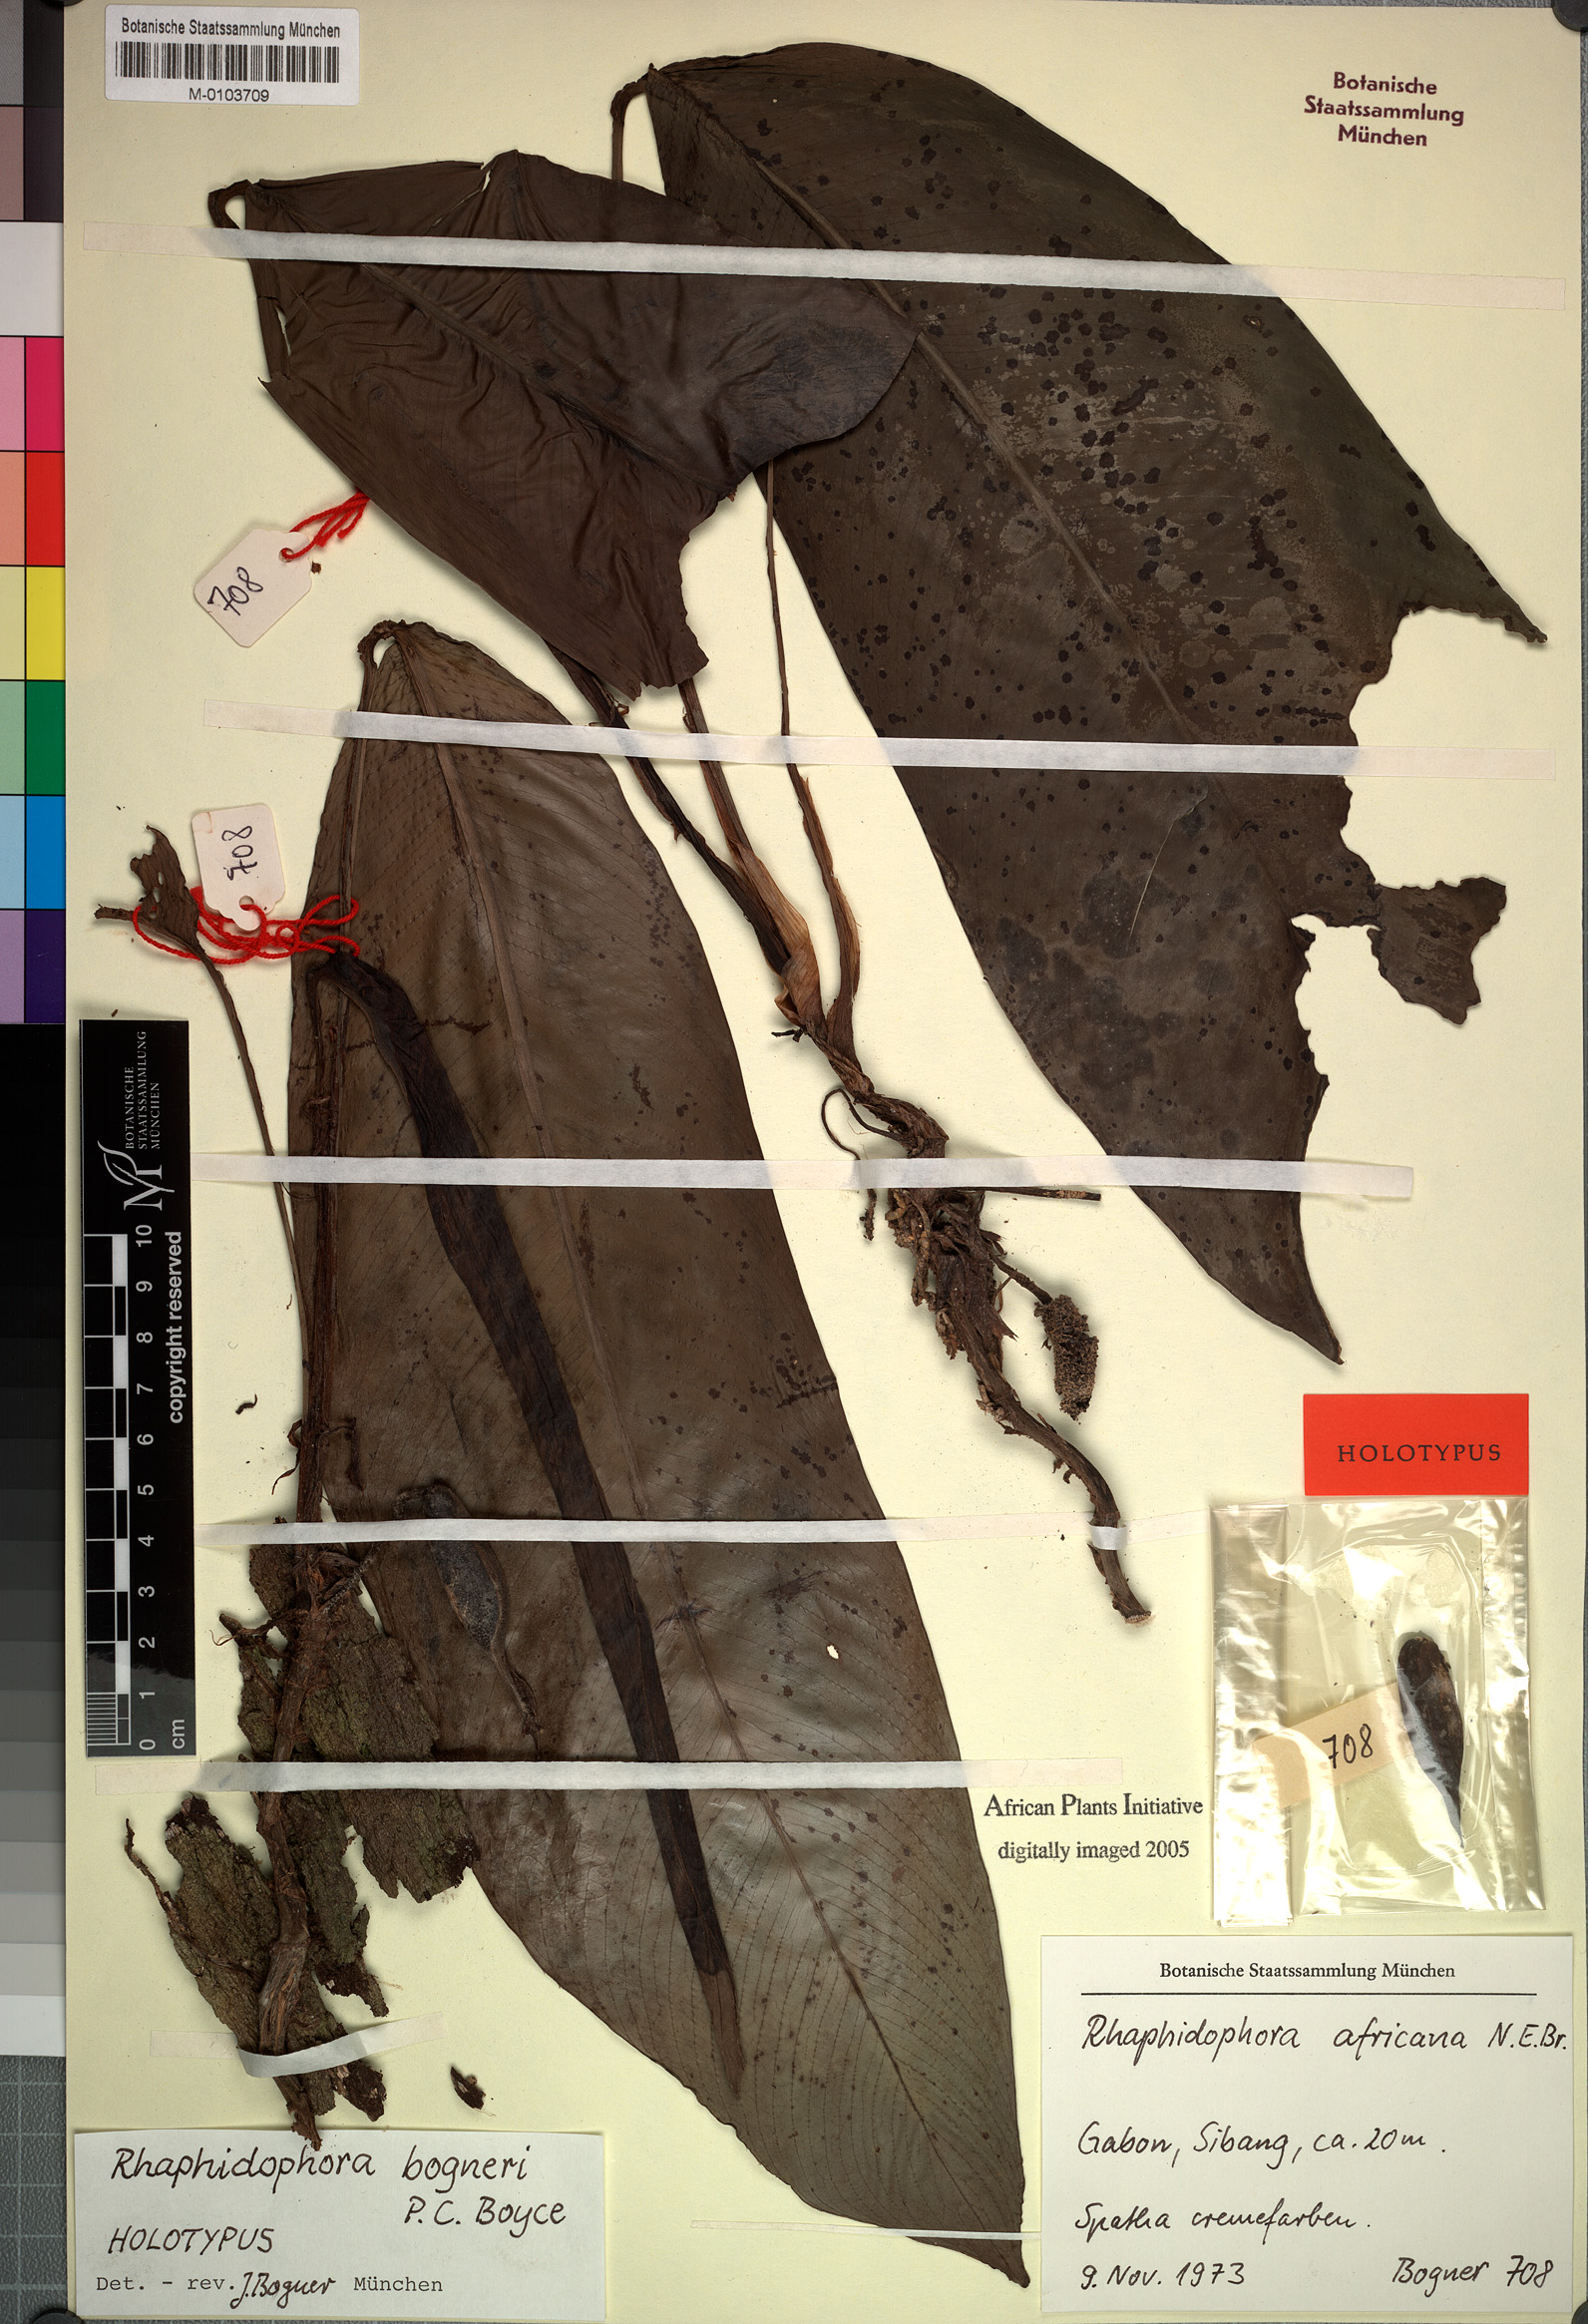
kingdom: Plantae
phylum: Tracheophyta
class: Liliopsida
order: Alismatales
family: Araceae
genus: Rhaphidophora
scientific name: Rhaphidophora africana
